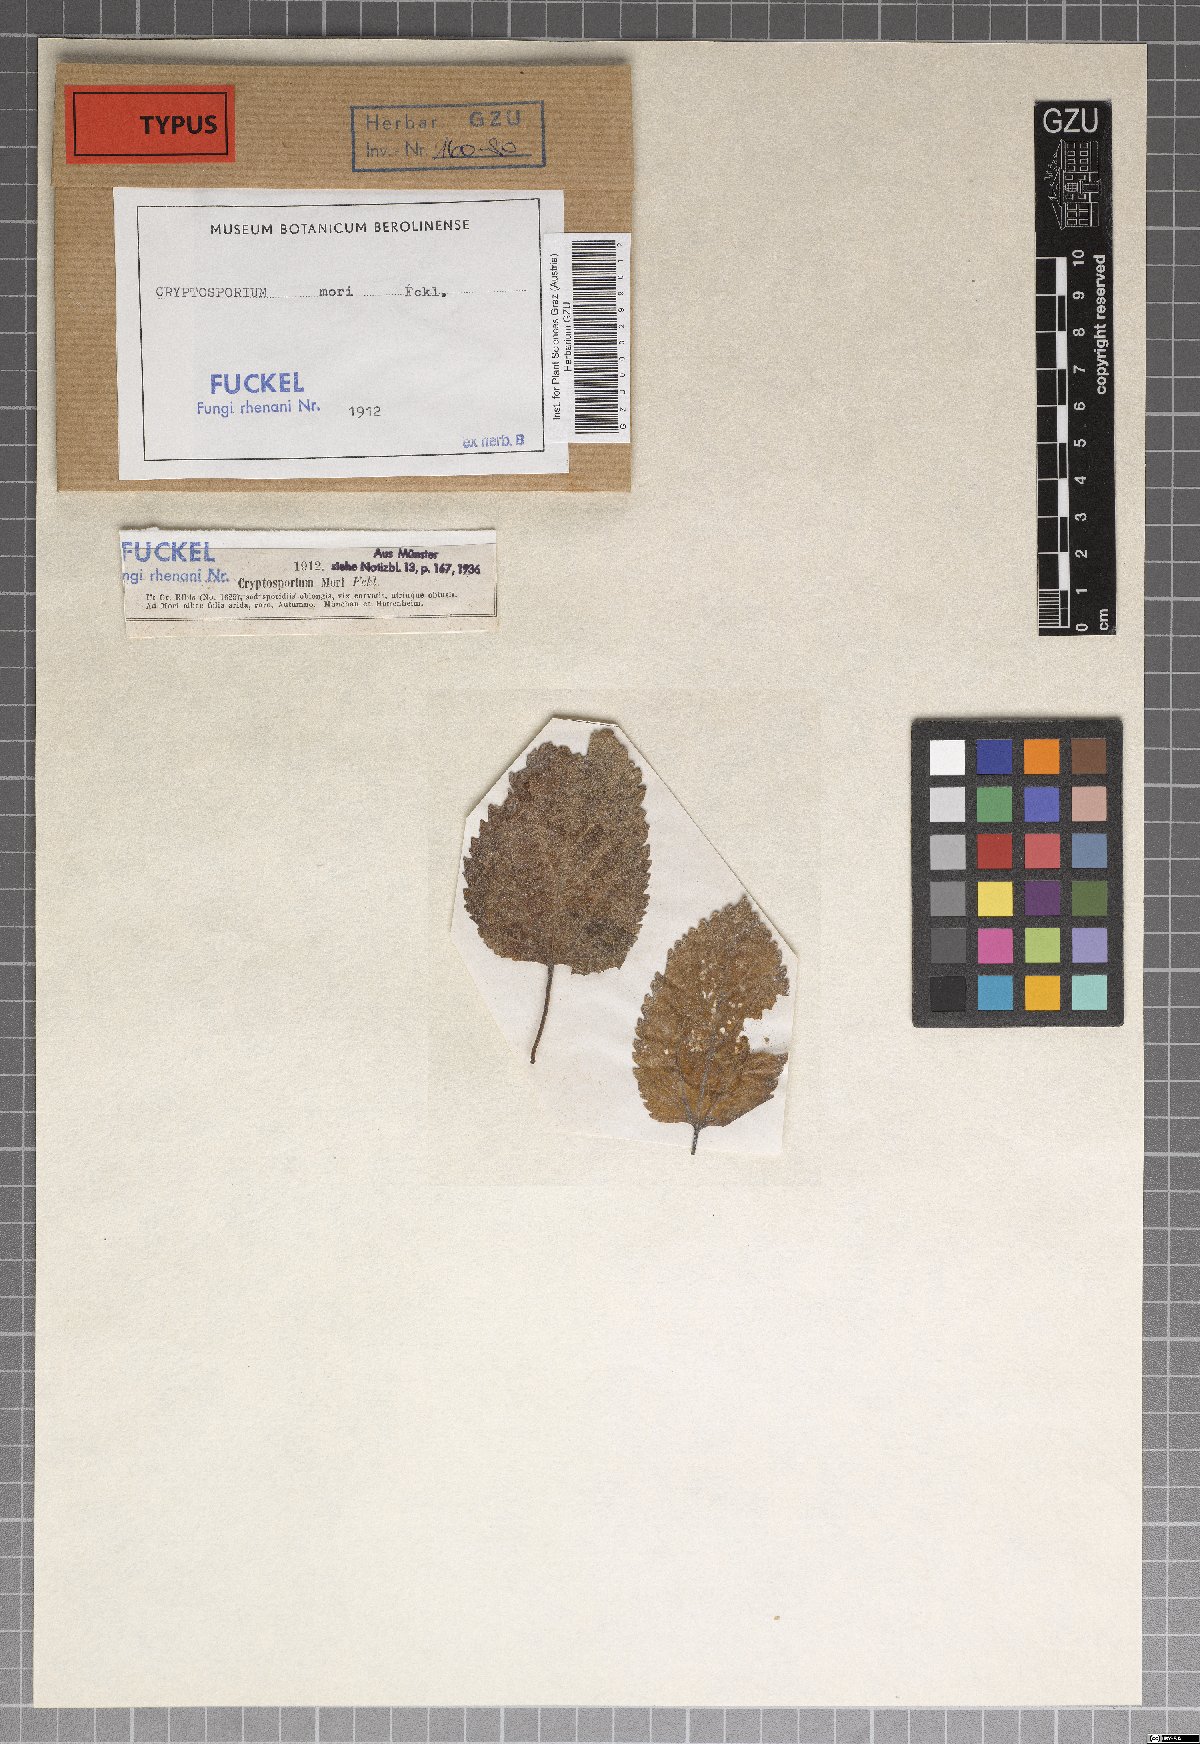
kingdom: Fungi
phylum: Ascomycota
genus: Cryptosporium
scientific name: Cryptosporium
